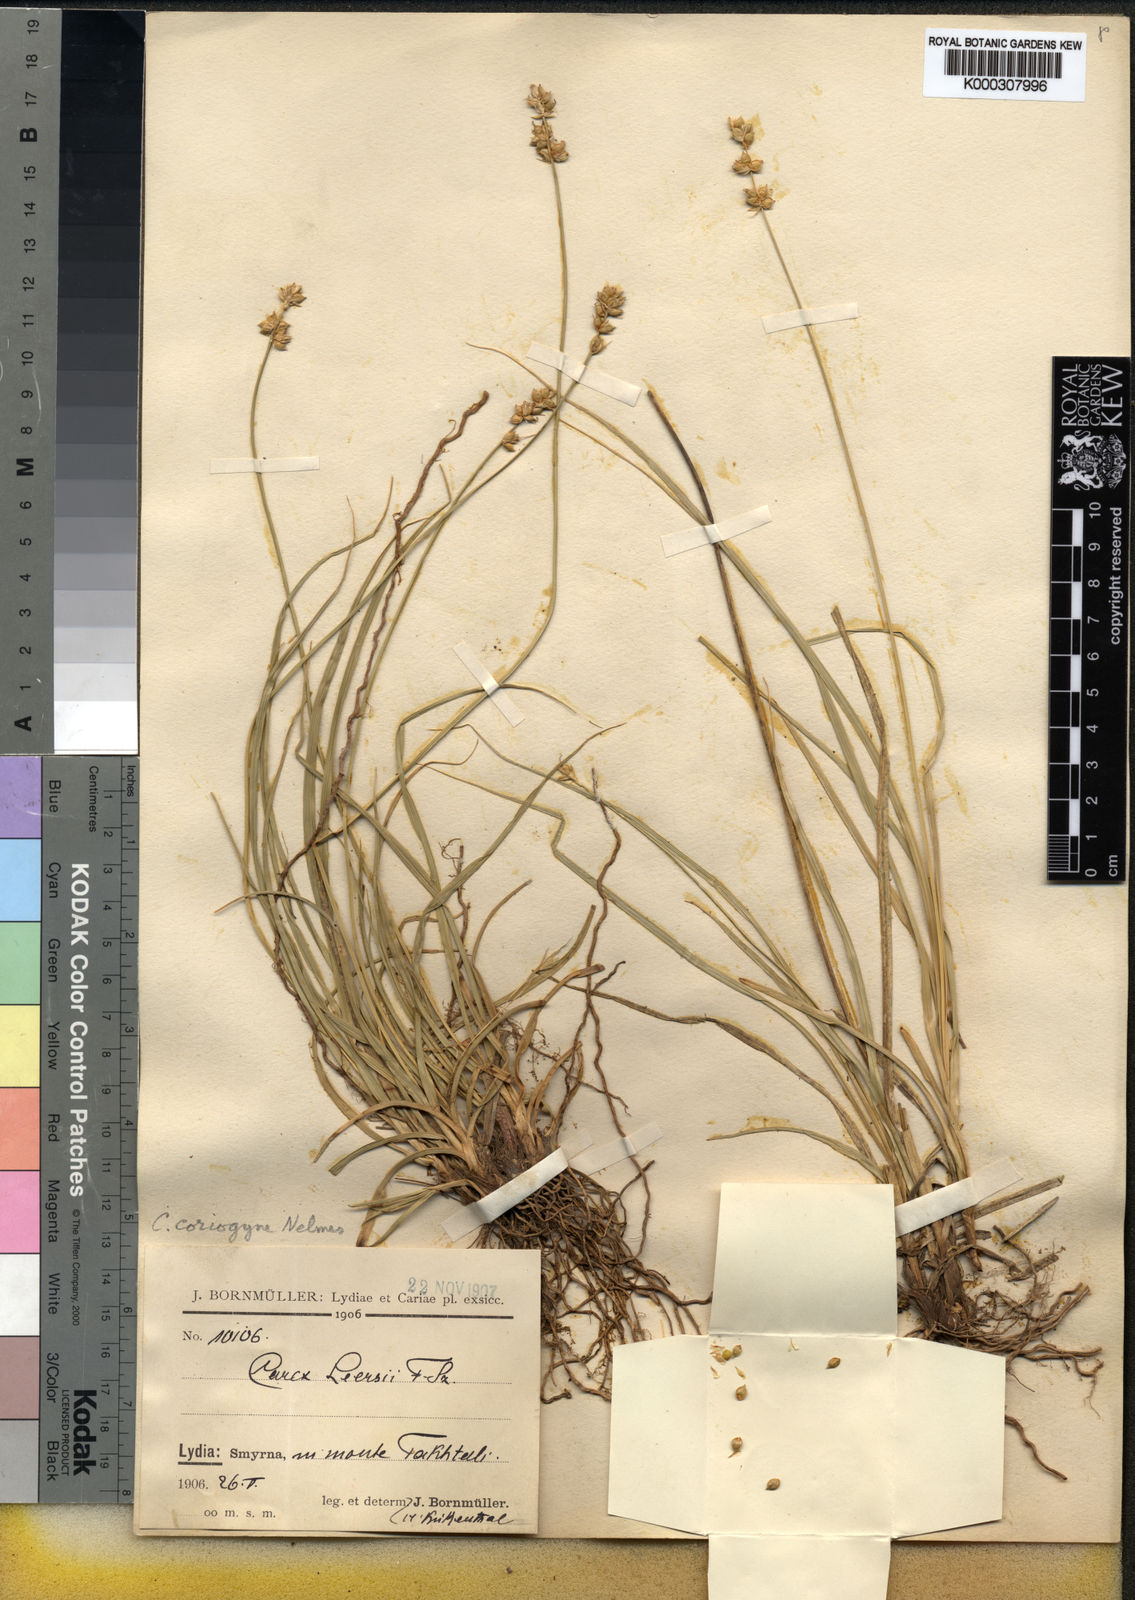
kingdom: Plantae
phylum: Tracheophyta
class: Liliopsida
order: Poales
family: Cyperaceae
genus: Carex
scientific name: Carex
